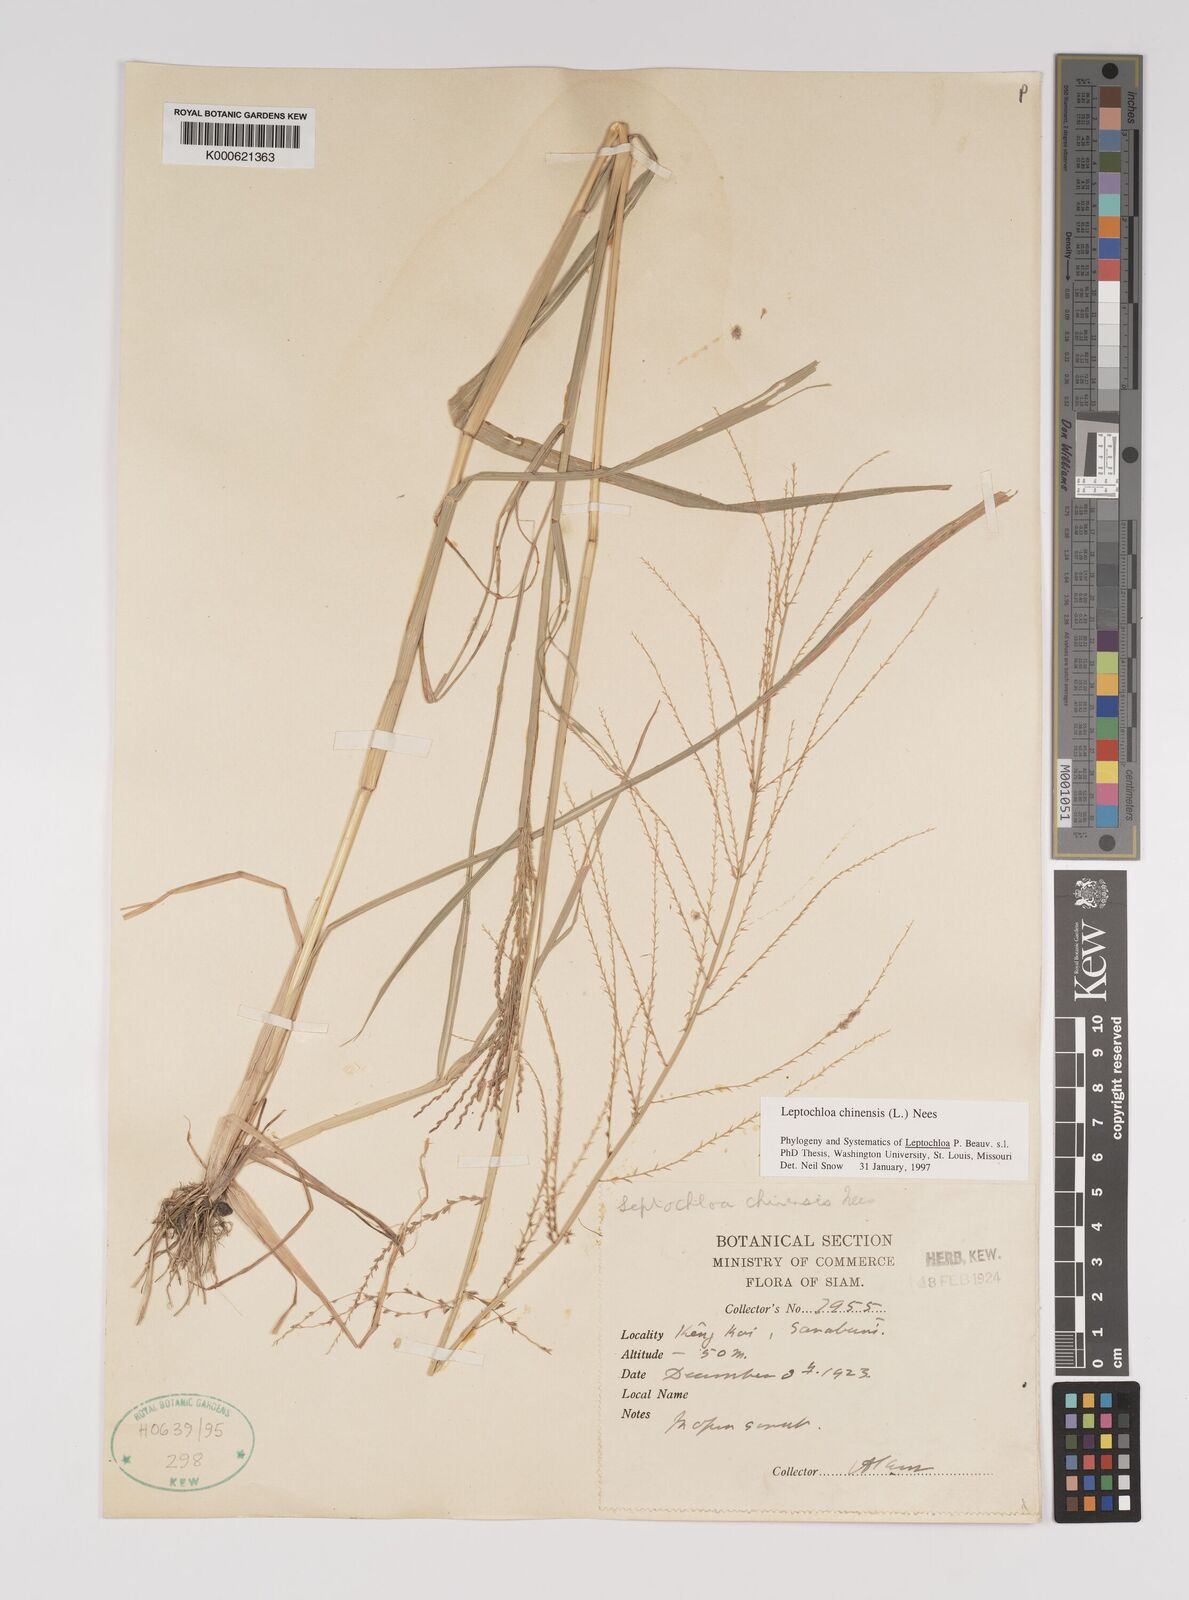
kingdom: Plantae
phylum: Tracheophyta
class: Liliopsida
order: Poales
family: Poaceae
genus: Leptochloa
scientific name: Leptochloa chinensis
